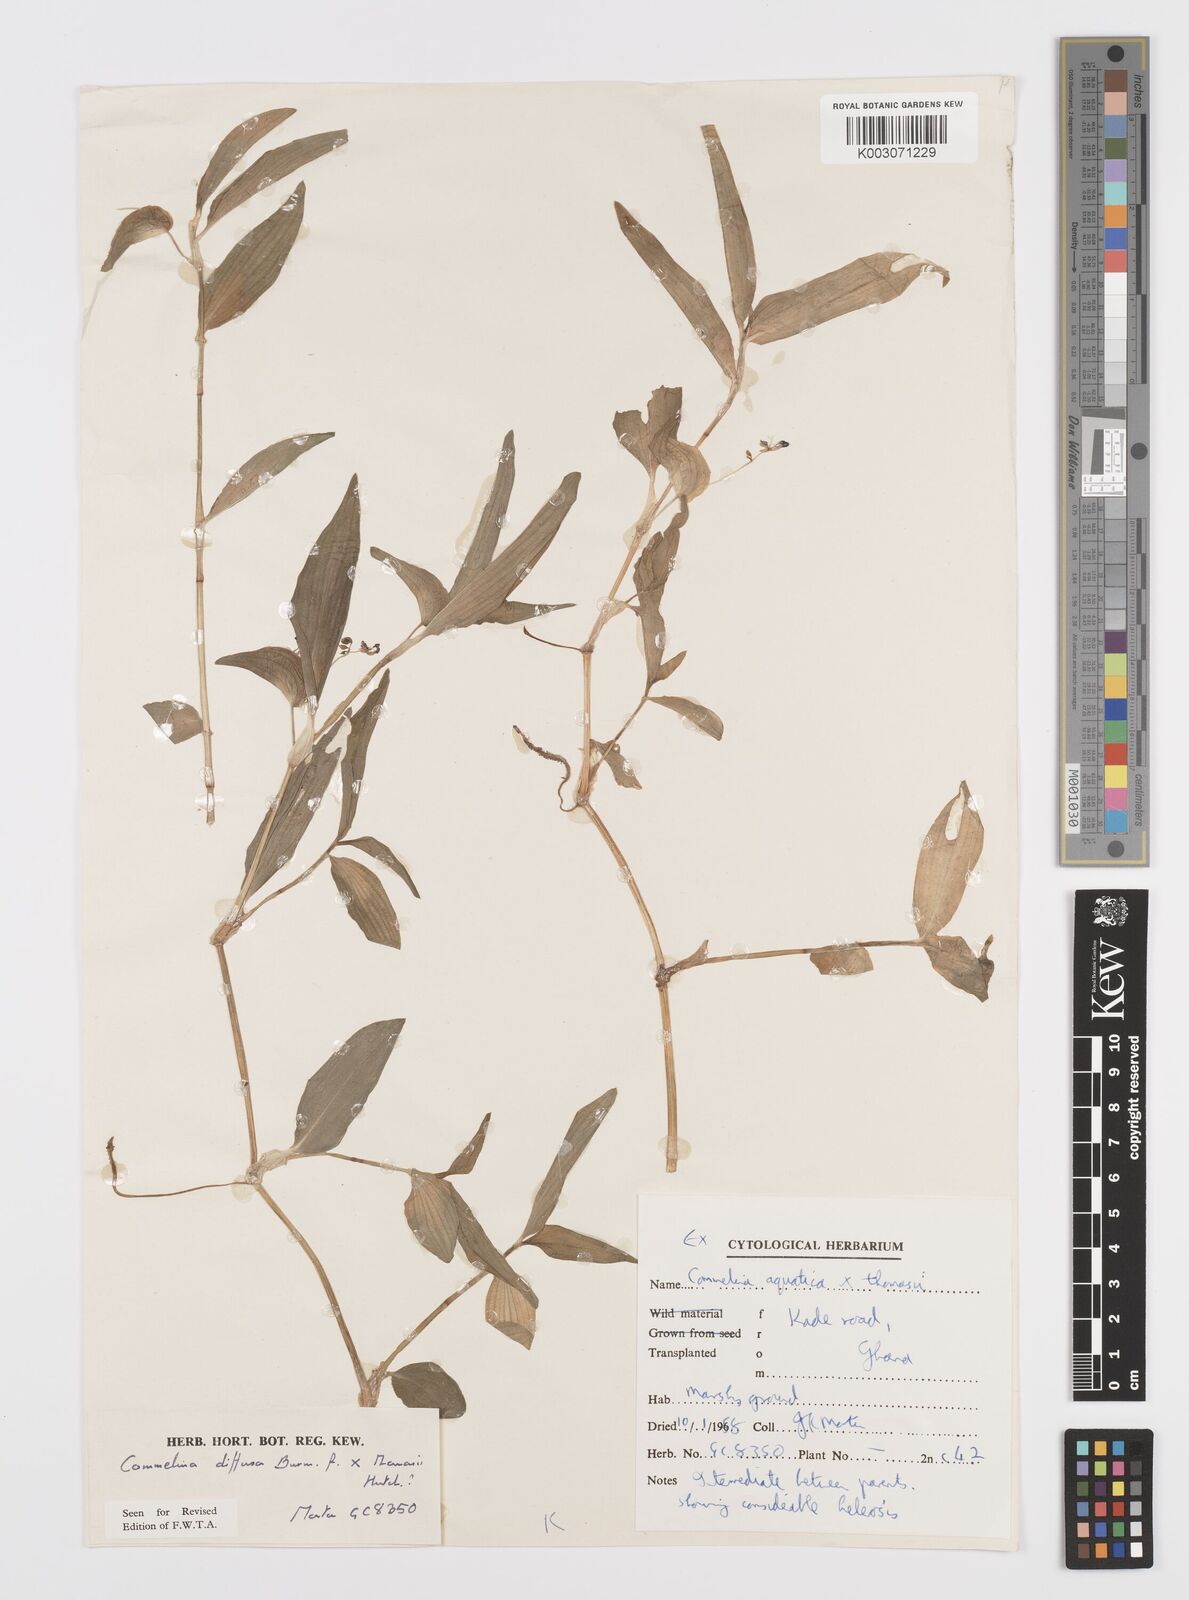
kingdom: Plantae
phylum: Tracheophyta
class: Liliopsida
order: Commelinales
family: Commelinaceae
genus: Commelina
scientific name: Commelina
